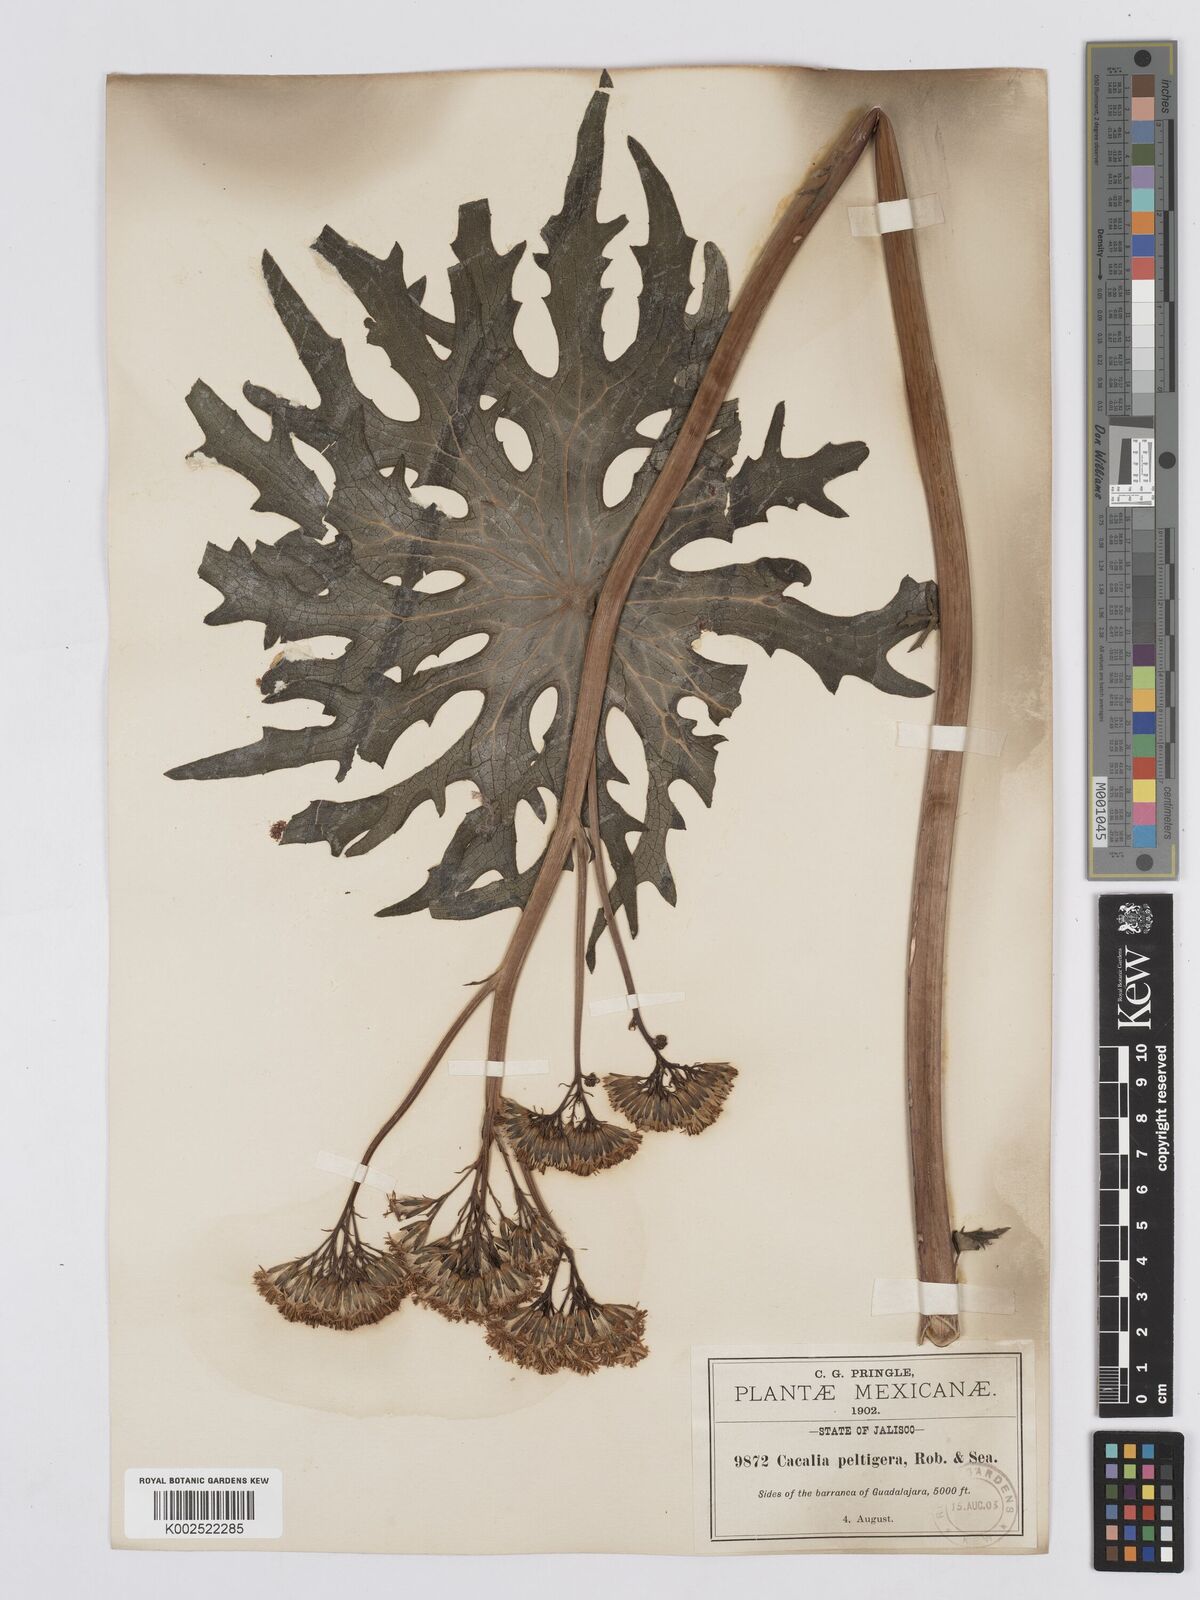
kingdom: Plantae
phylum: Tracheophyta
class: Magnoliopsida
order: Asterales
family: Asteraceae
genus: Psacalium
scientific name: Psacalium peltigerum
